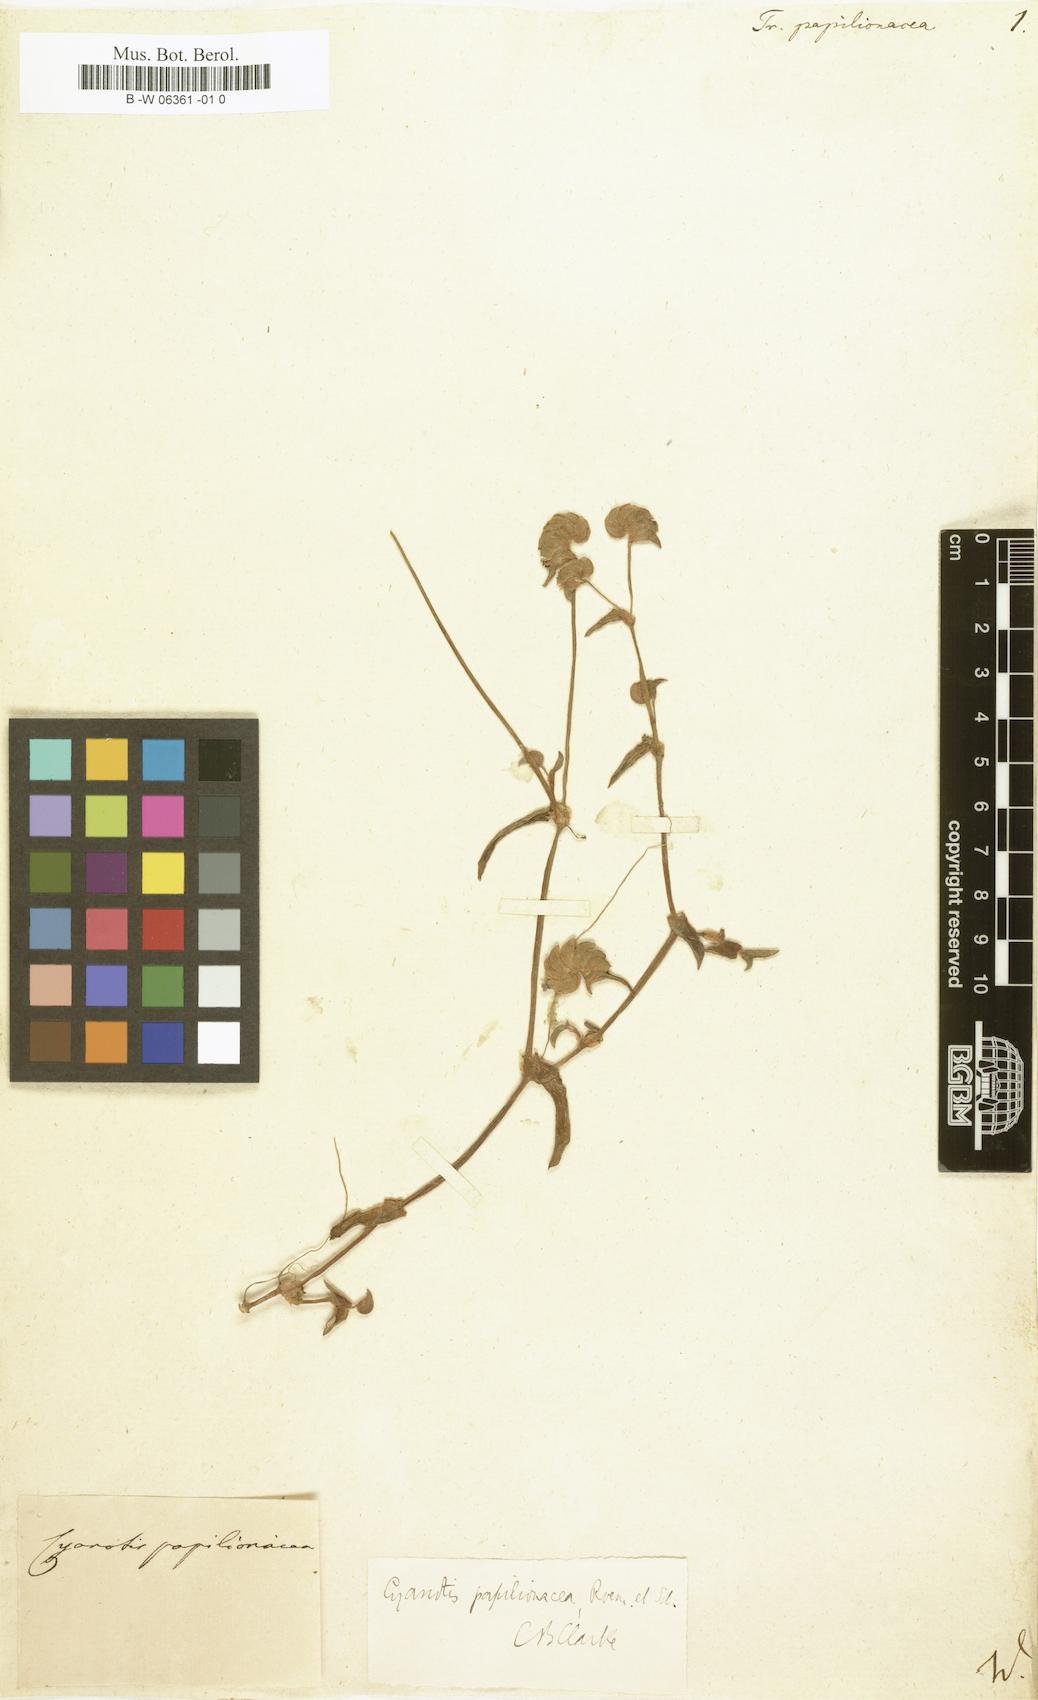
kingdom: Plantae
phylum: Tracheophyta
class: Liliopsida
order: Commelinales
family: Commelinaceae
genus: Cyanotis
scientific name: Cyanotis cristata
